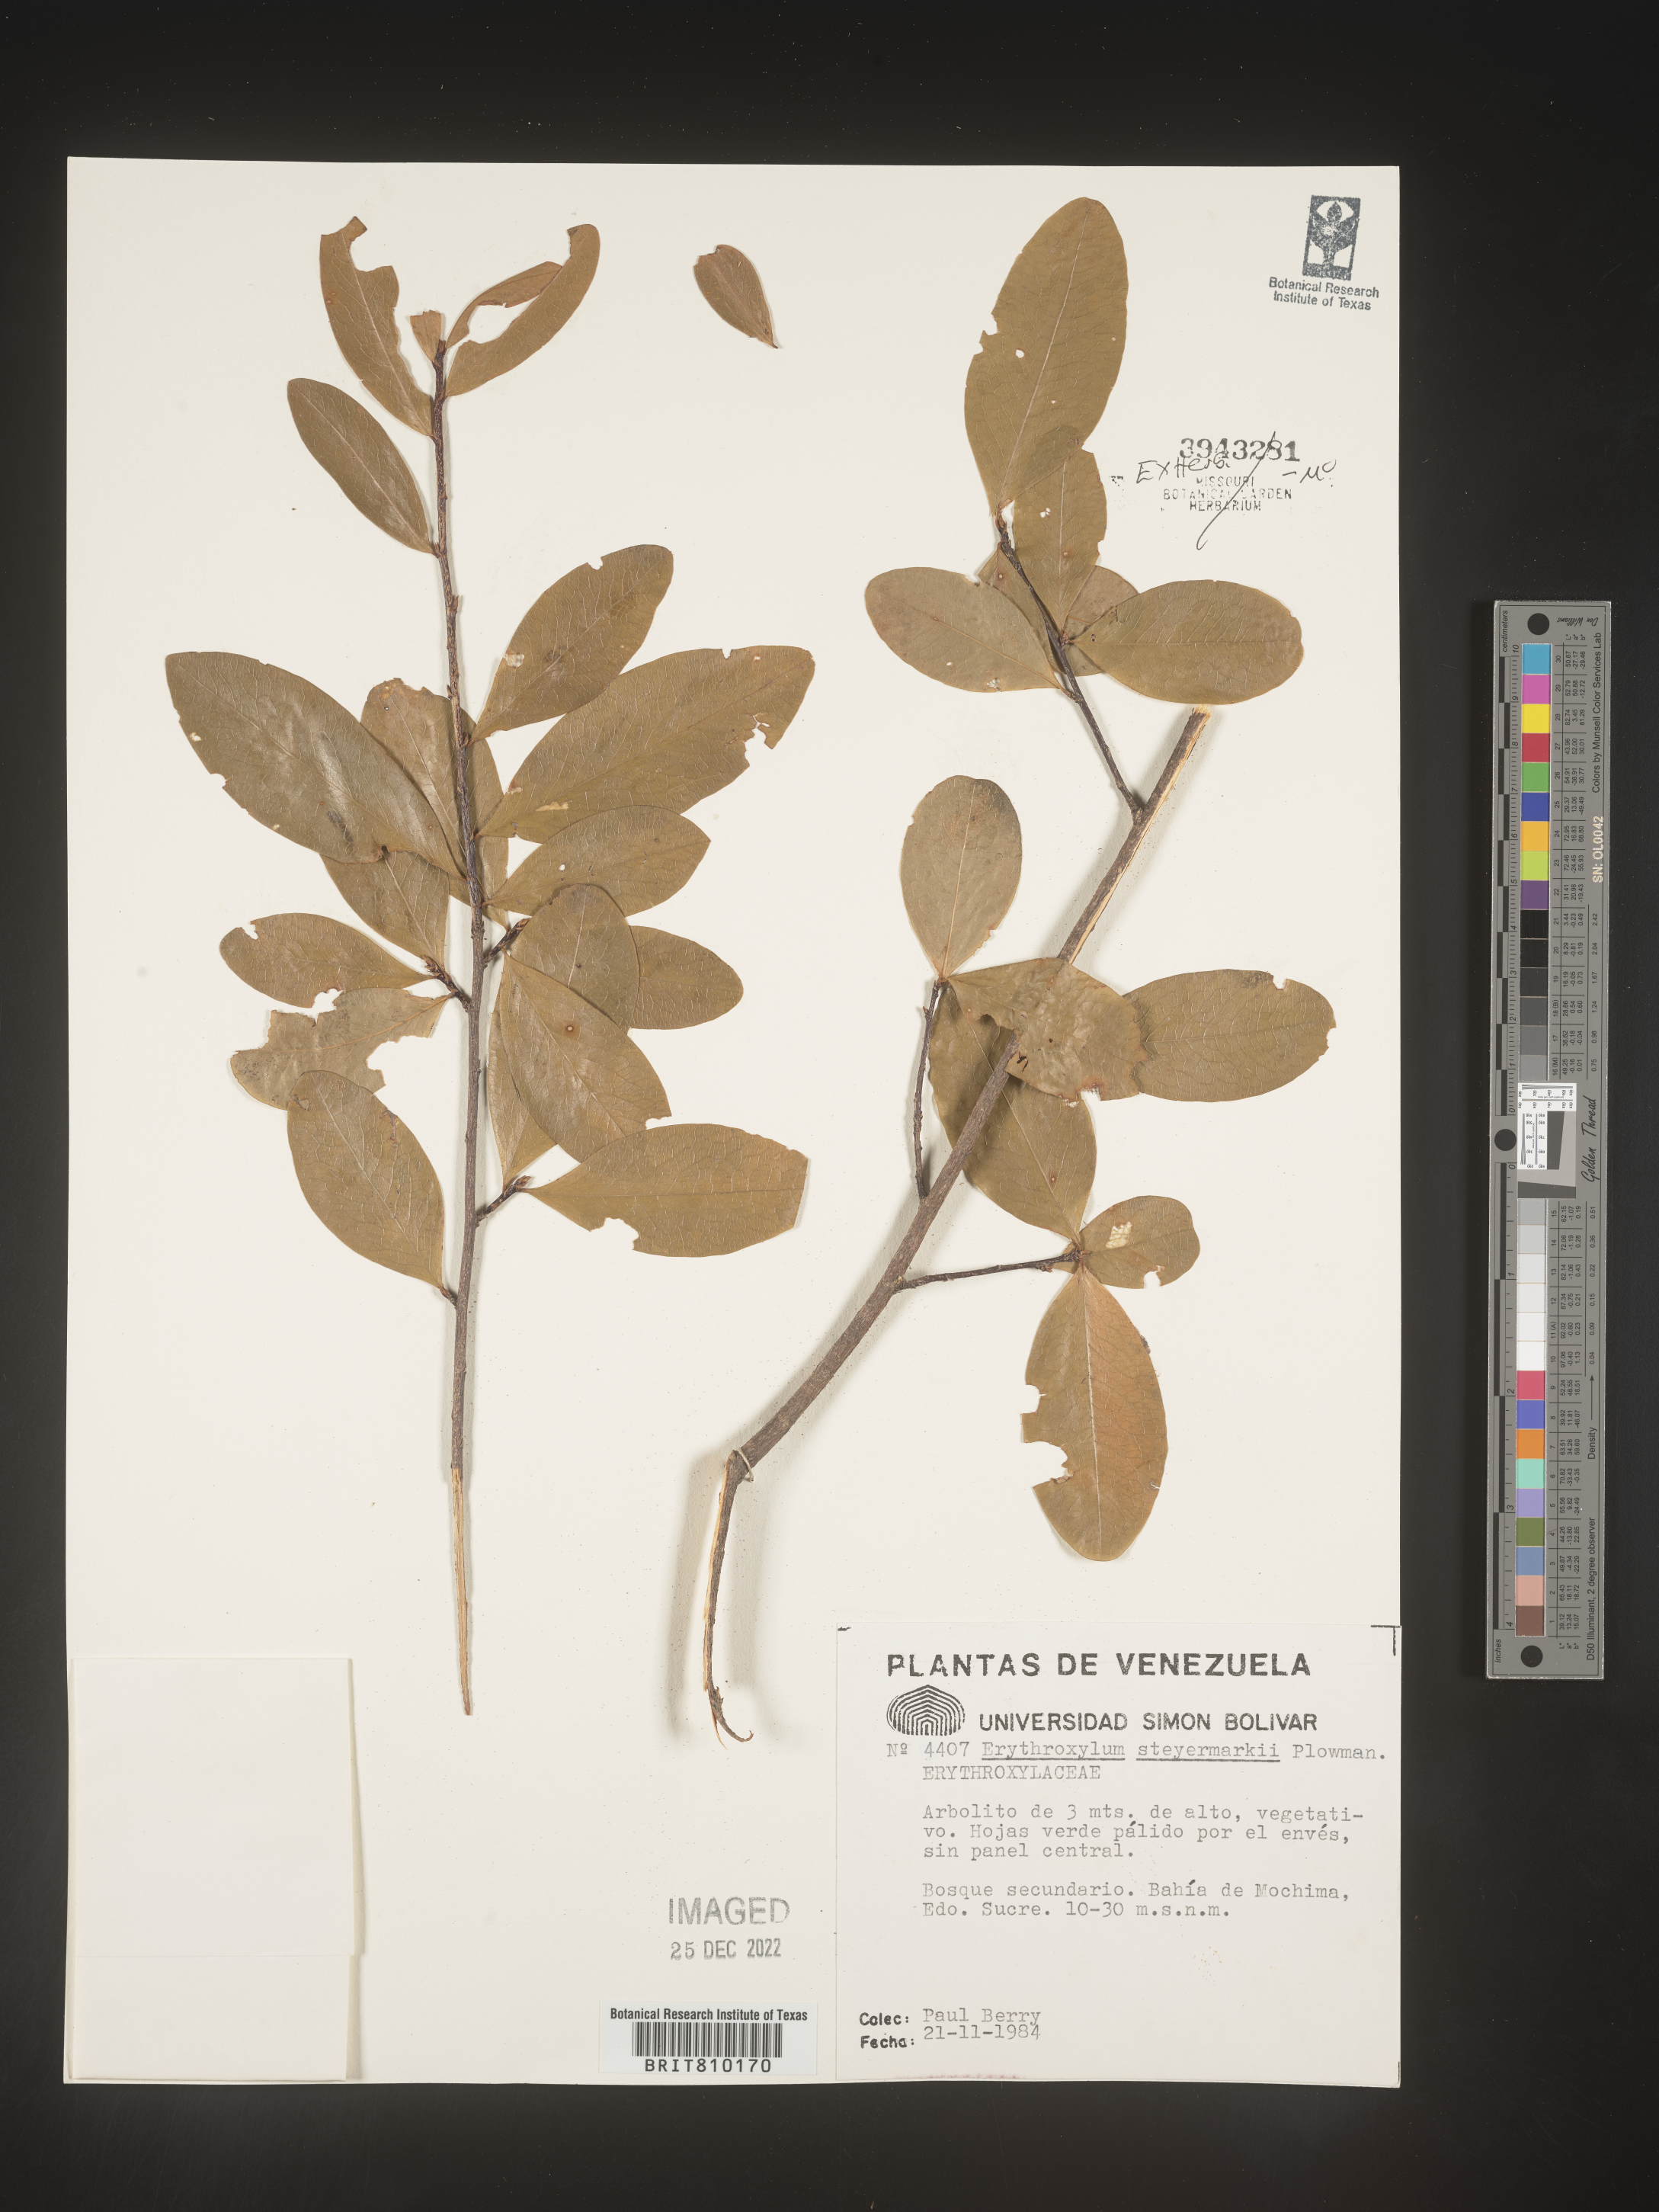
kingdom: Plantae
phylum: Tracheophyta
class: Magnoliopsida
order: Malpighiales
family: Erythroxylaceae
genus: Erythroxylum
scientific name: Erythroxylum
